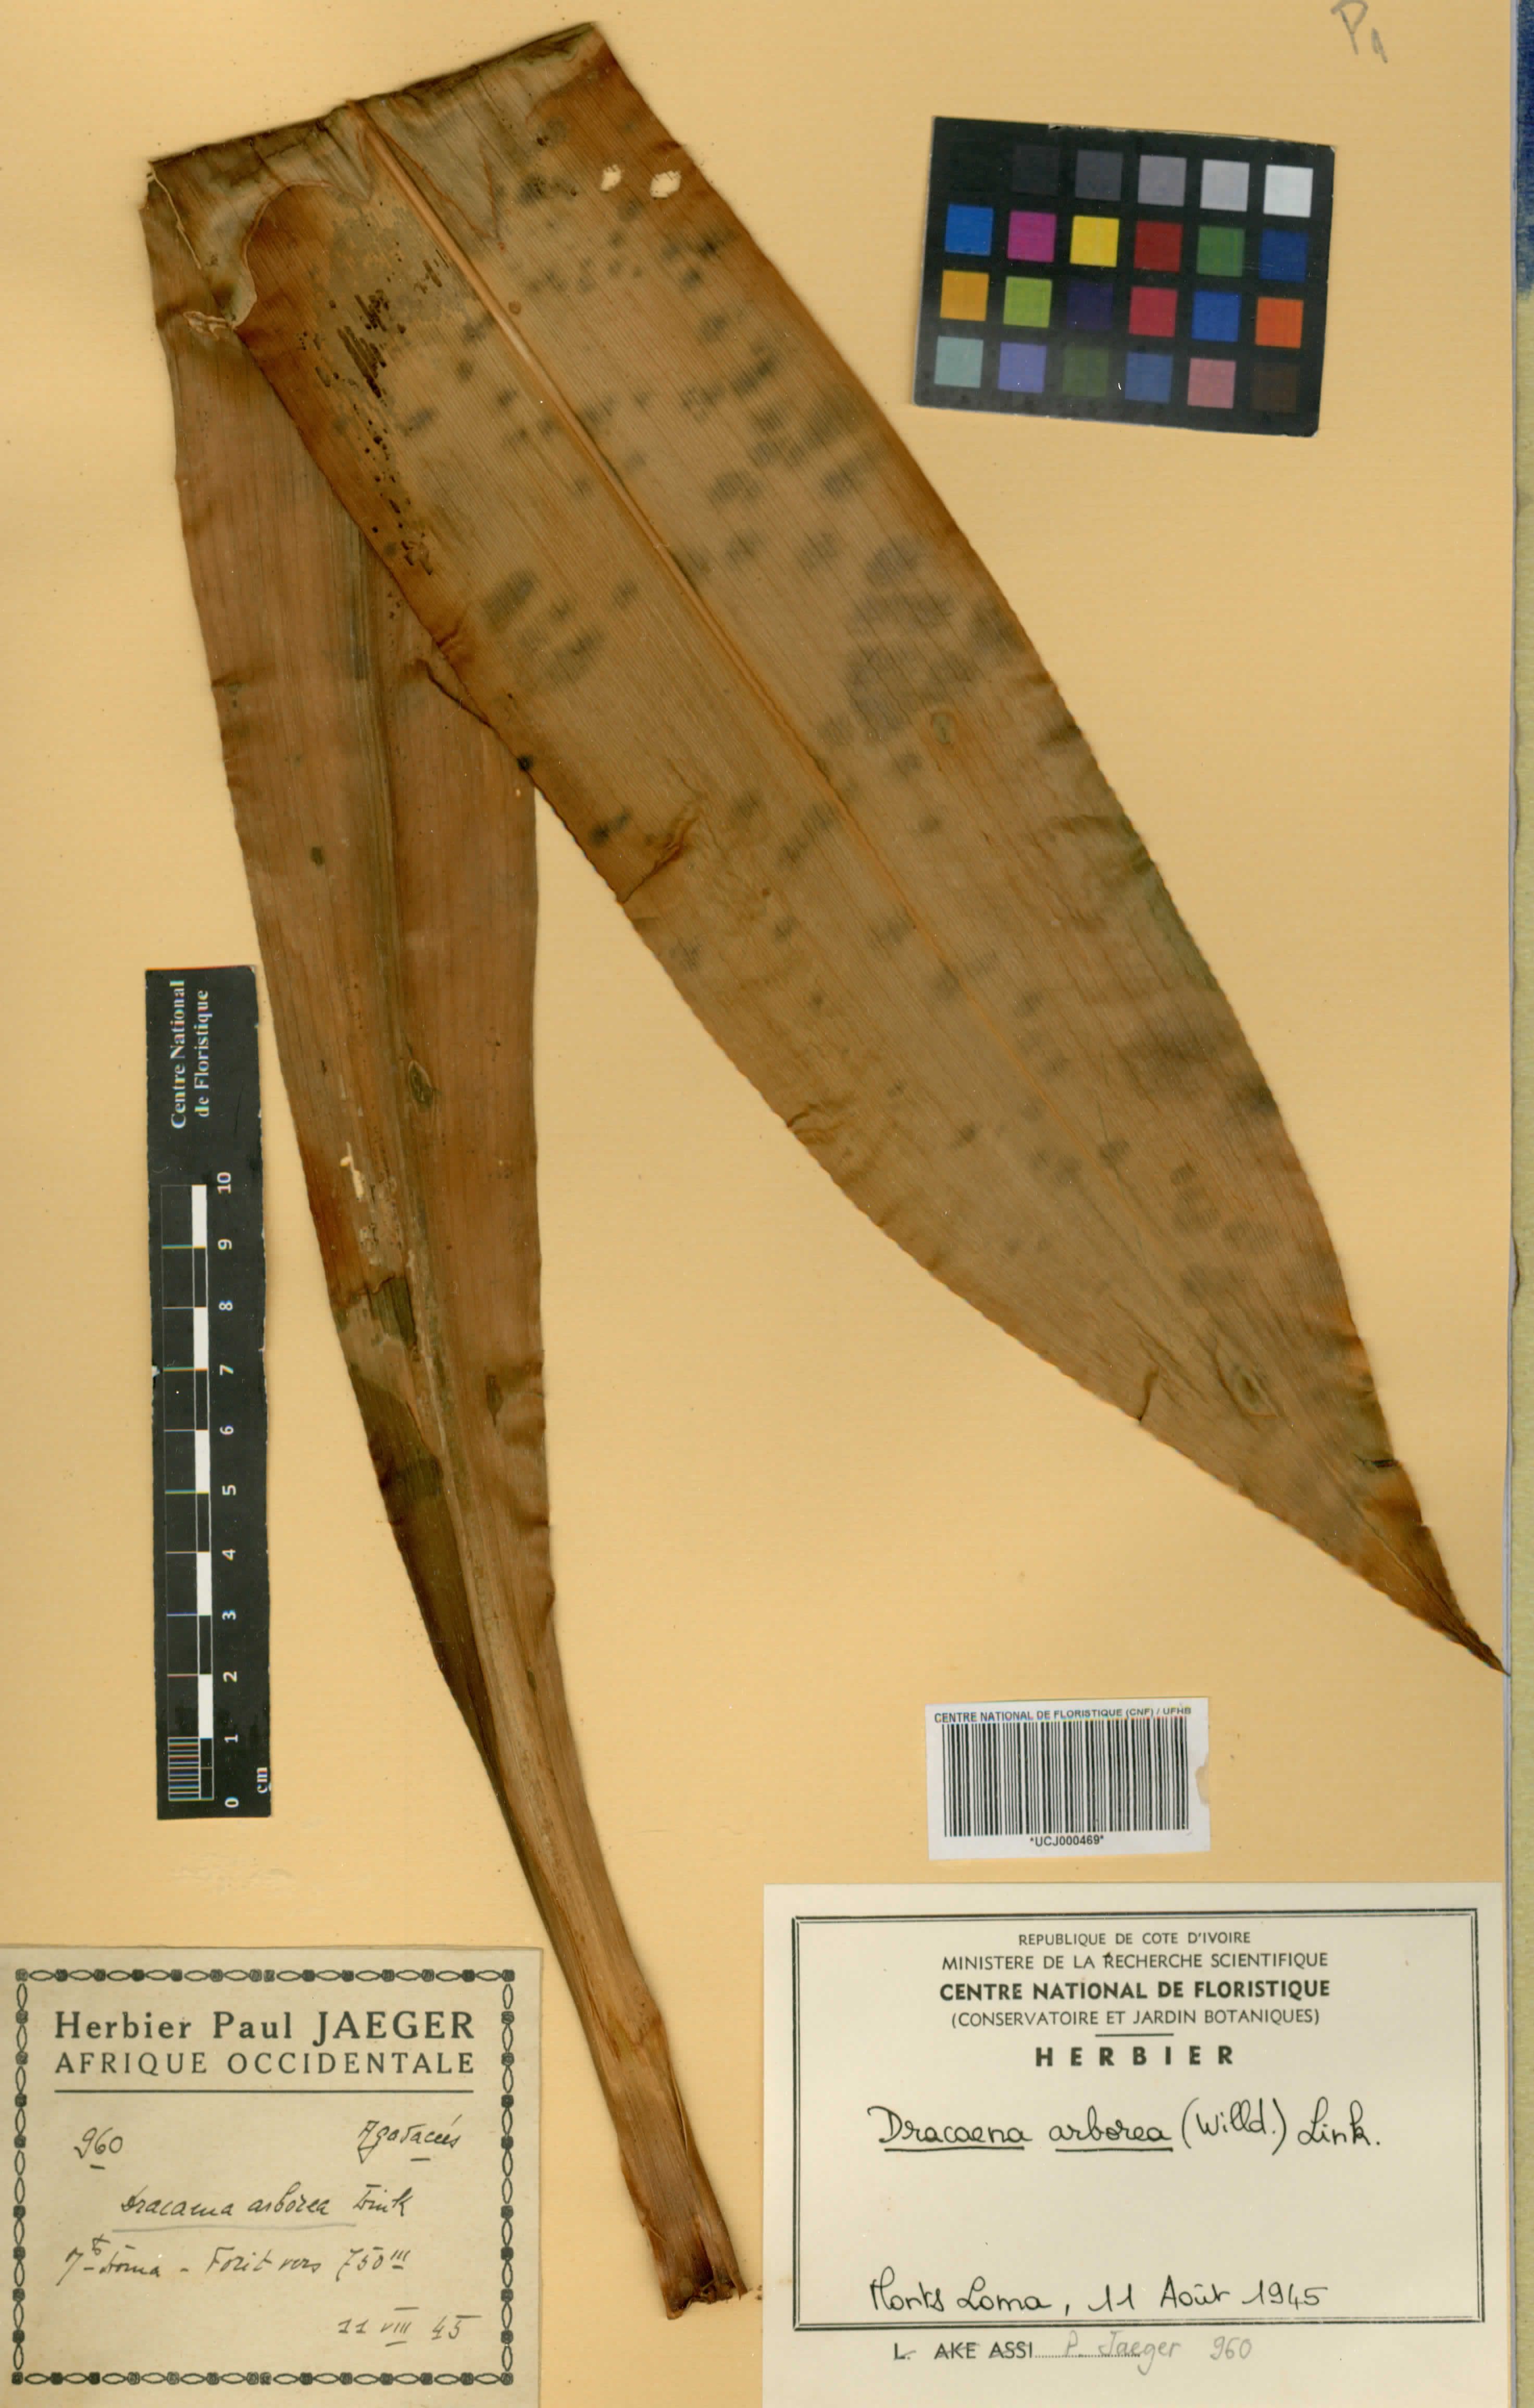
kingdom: Plantae
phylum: Tracheophyta
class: Liliopsida
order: Asparagales
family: Asparagaceae
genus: Dracaena
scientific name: Dracaena arborea
